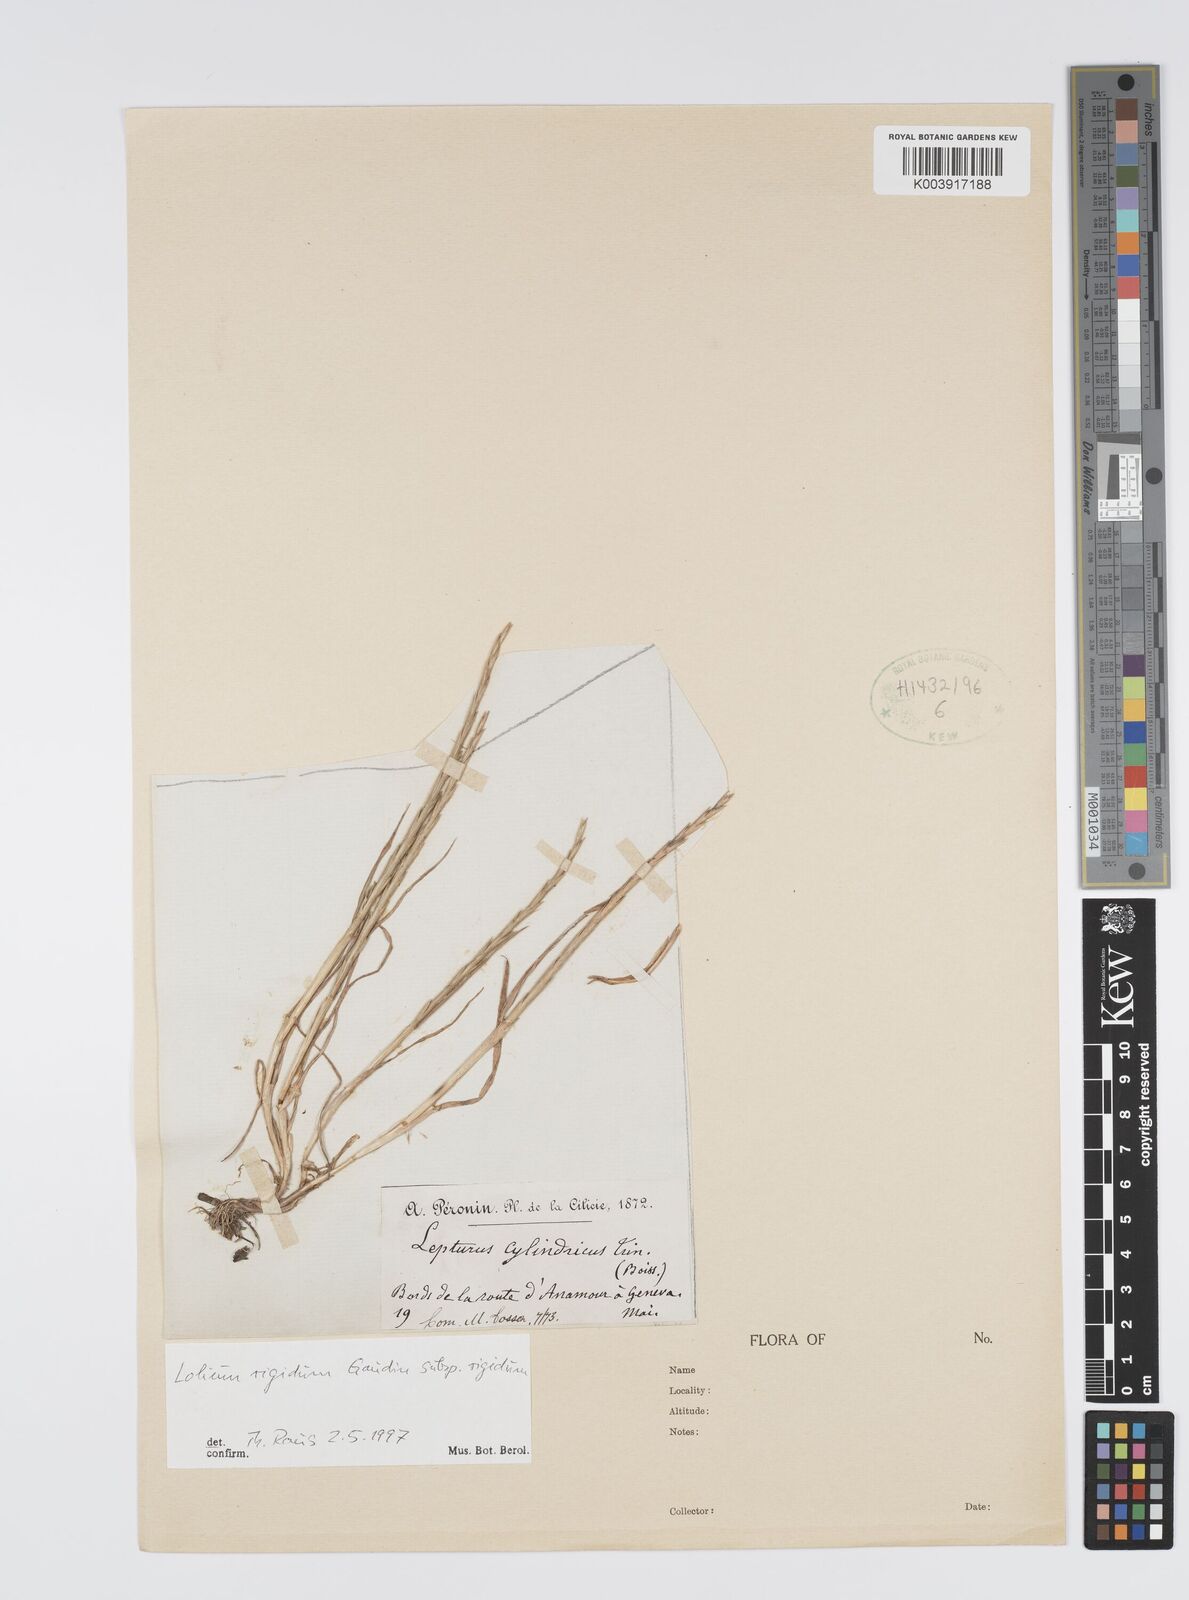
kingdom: Plantae
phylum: Tracheophyta
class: Liliopsida
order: Poales
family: Poaceae
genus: Lolium
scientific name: Lolium rigidum
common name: Wimmera ryegrass
